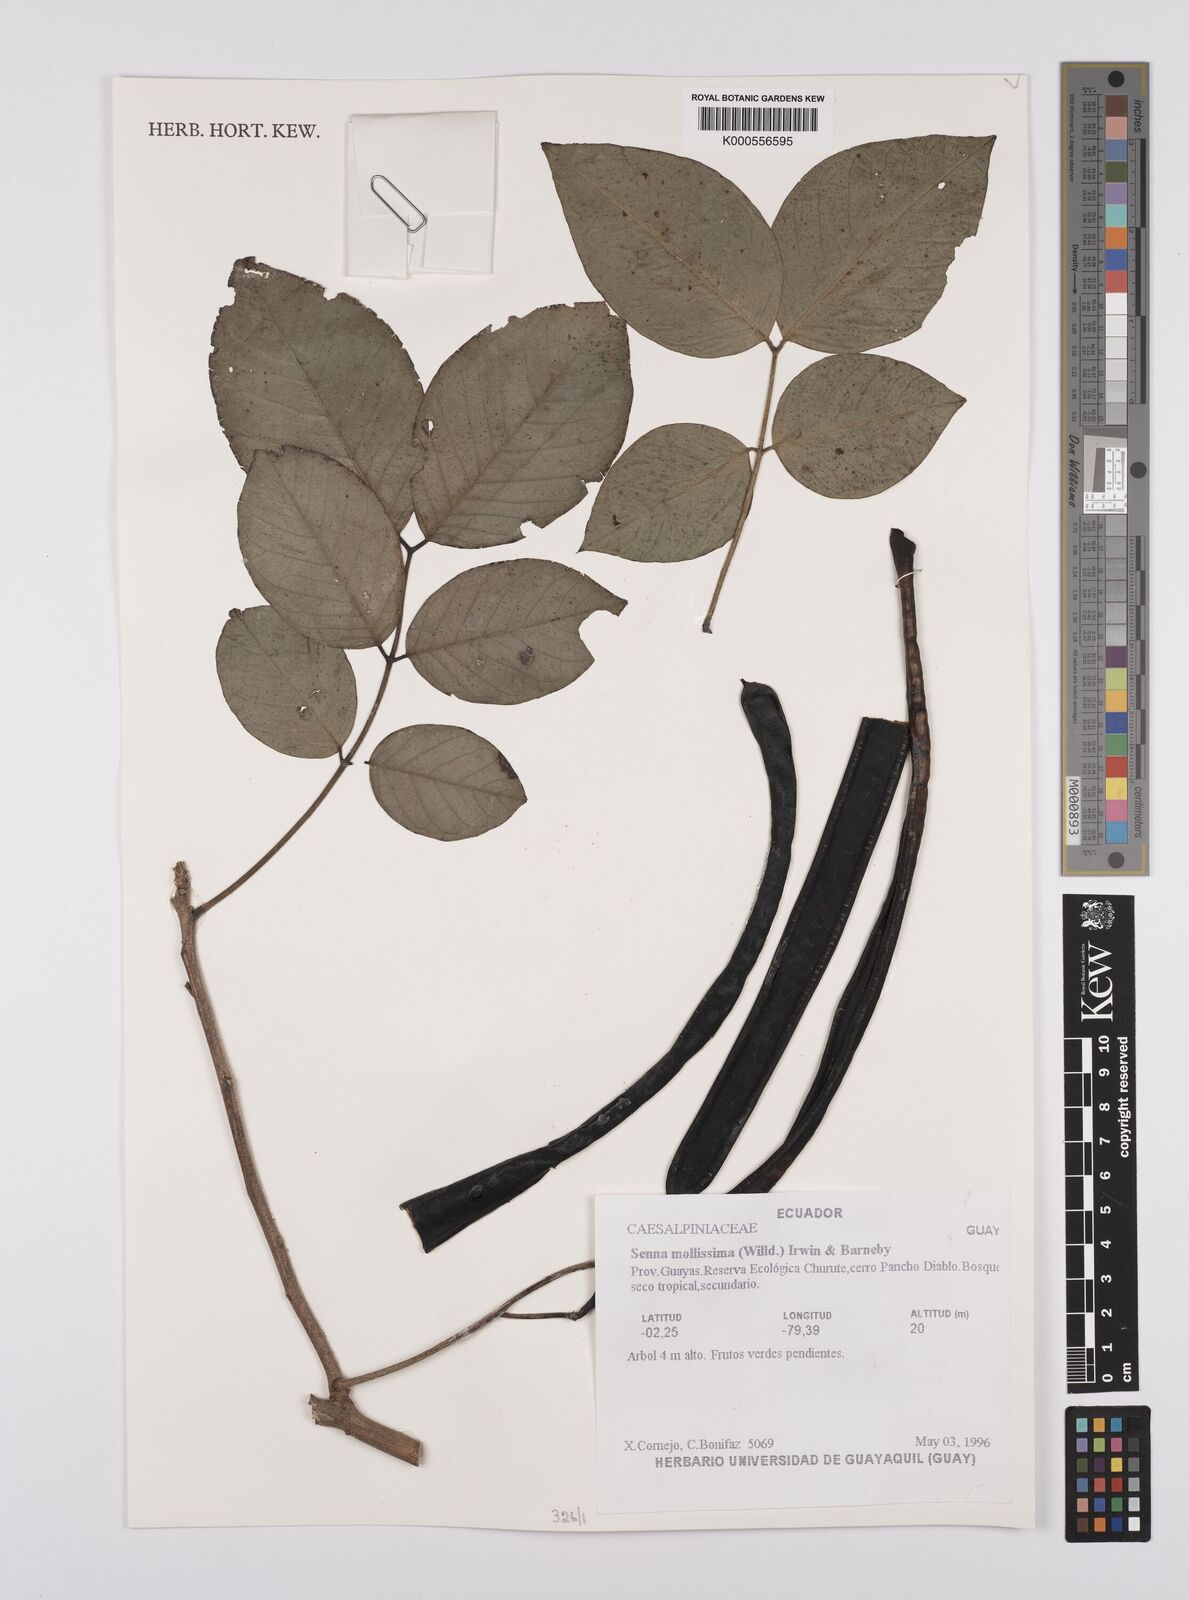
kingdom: Plantae
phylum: Tracheophyta
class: Magnoliopsida
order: Fabales
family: Fabaceae
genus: Senna
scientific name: Senna mollissima
